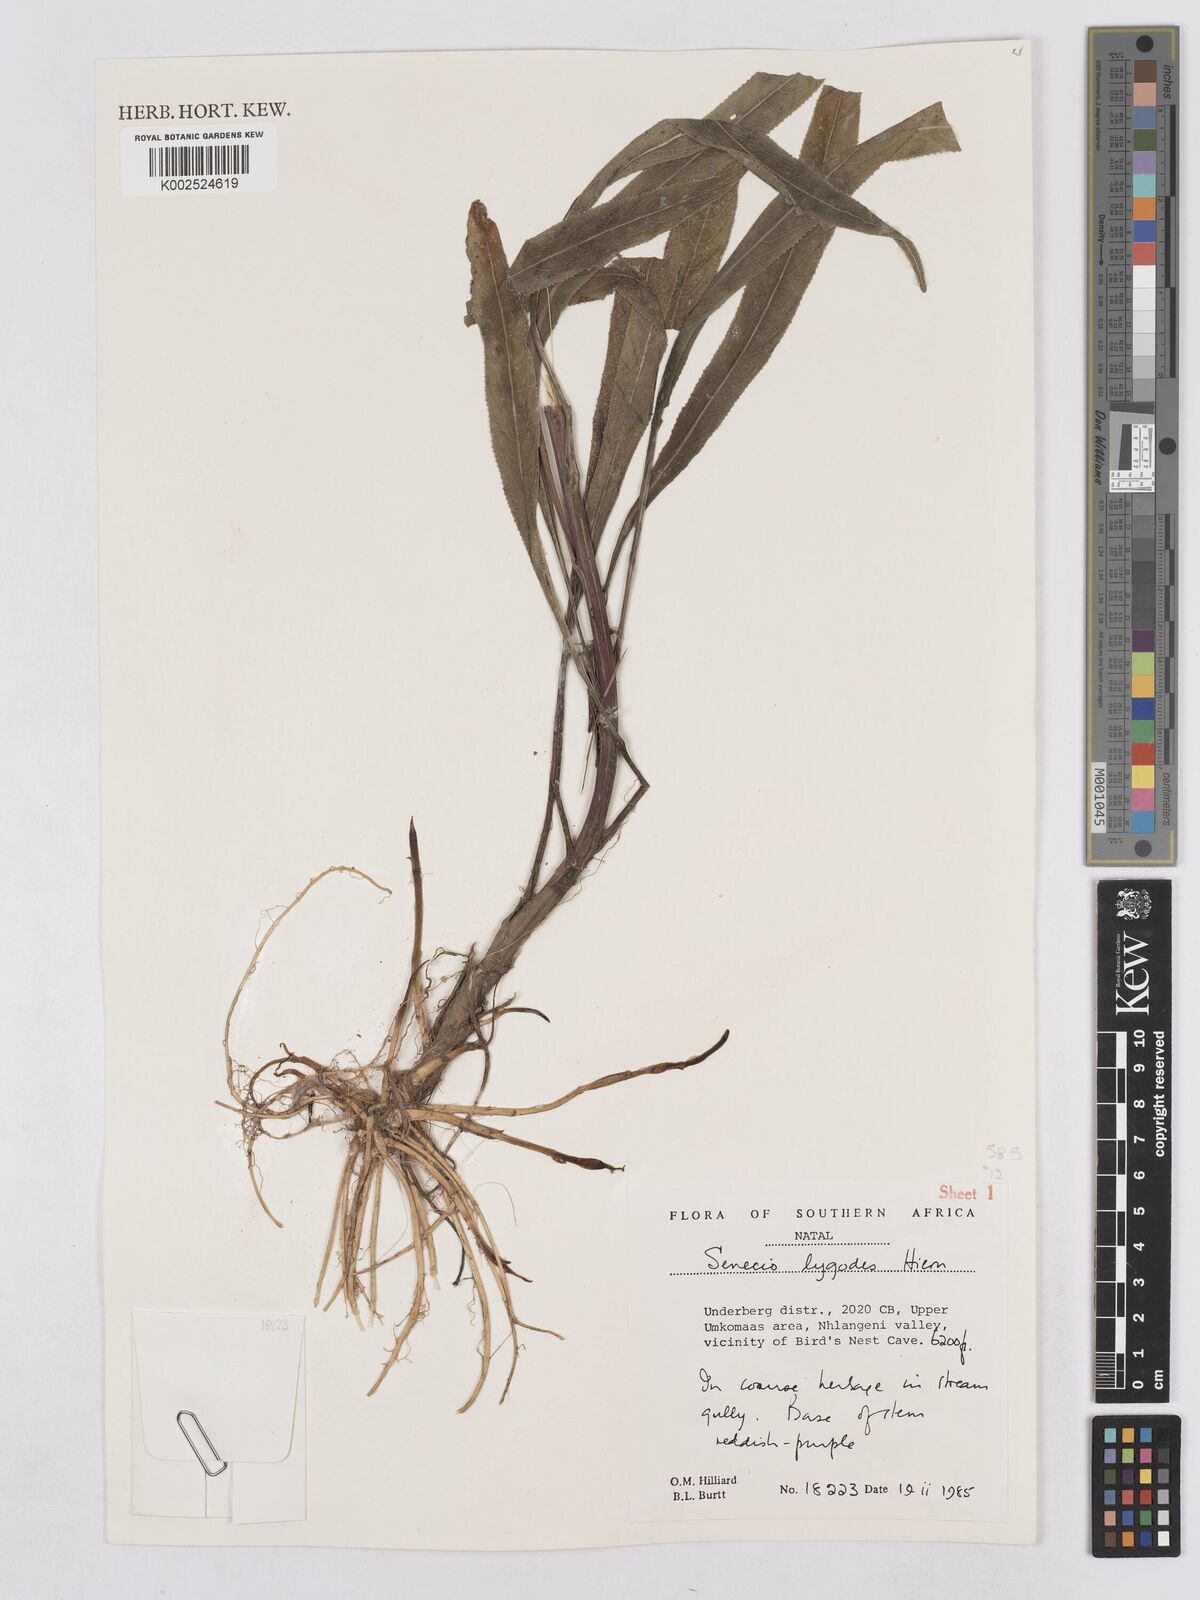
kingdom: Plantae
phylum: Tracheophyta
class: Magnoliopsida
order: Asterales
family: Asteraceae
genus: Senecio
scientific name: Senecio inornatus
